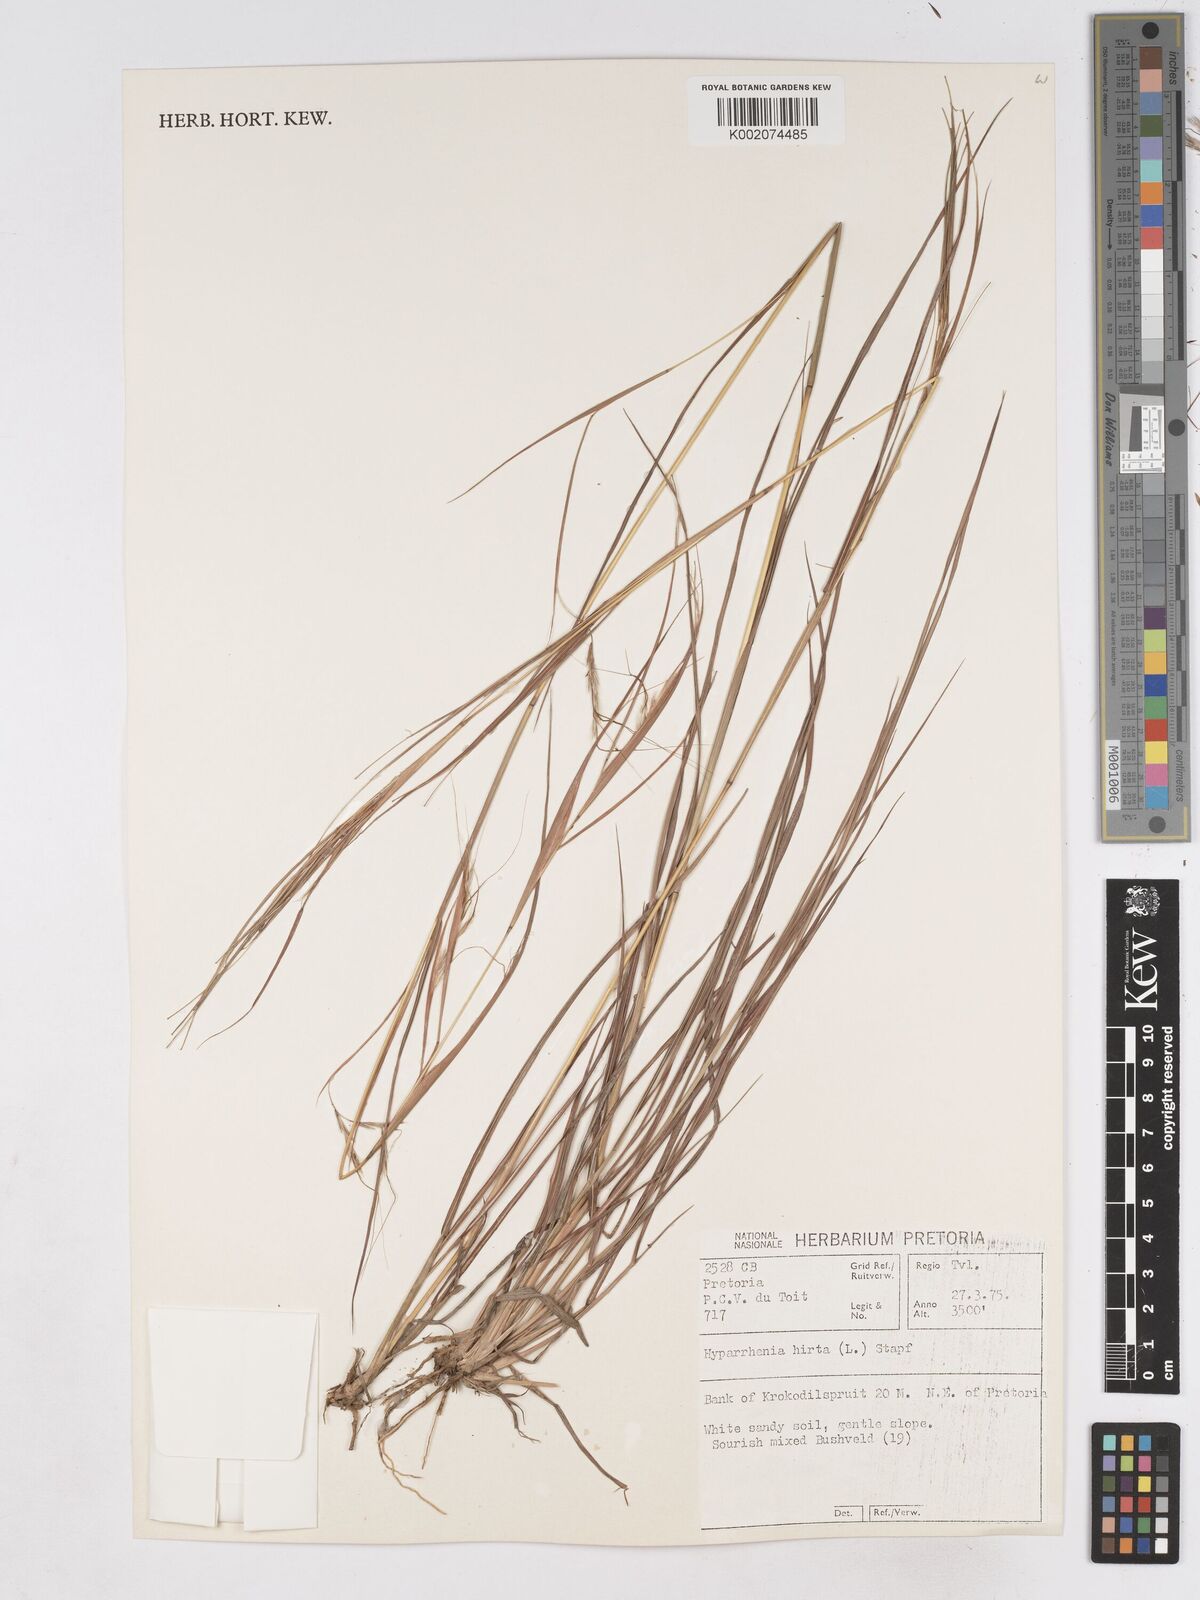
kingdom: Plantae
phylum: Tracheophyta
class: Liliopsida
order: Poales
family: Poaceae
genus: Hyparrhenia
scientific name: Hyparrhenia hirta
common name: Thatching grass
